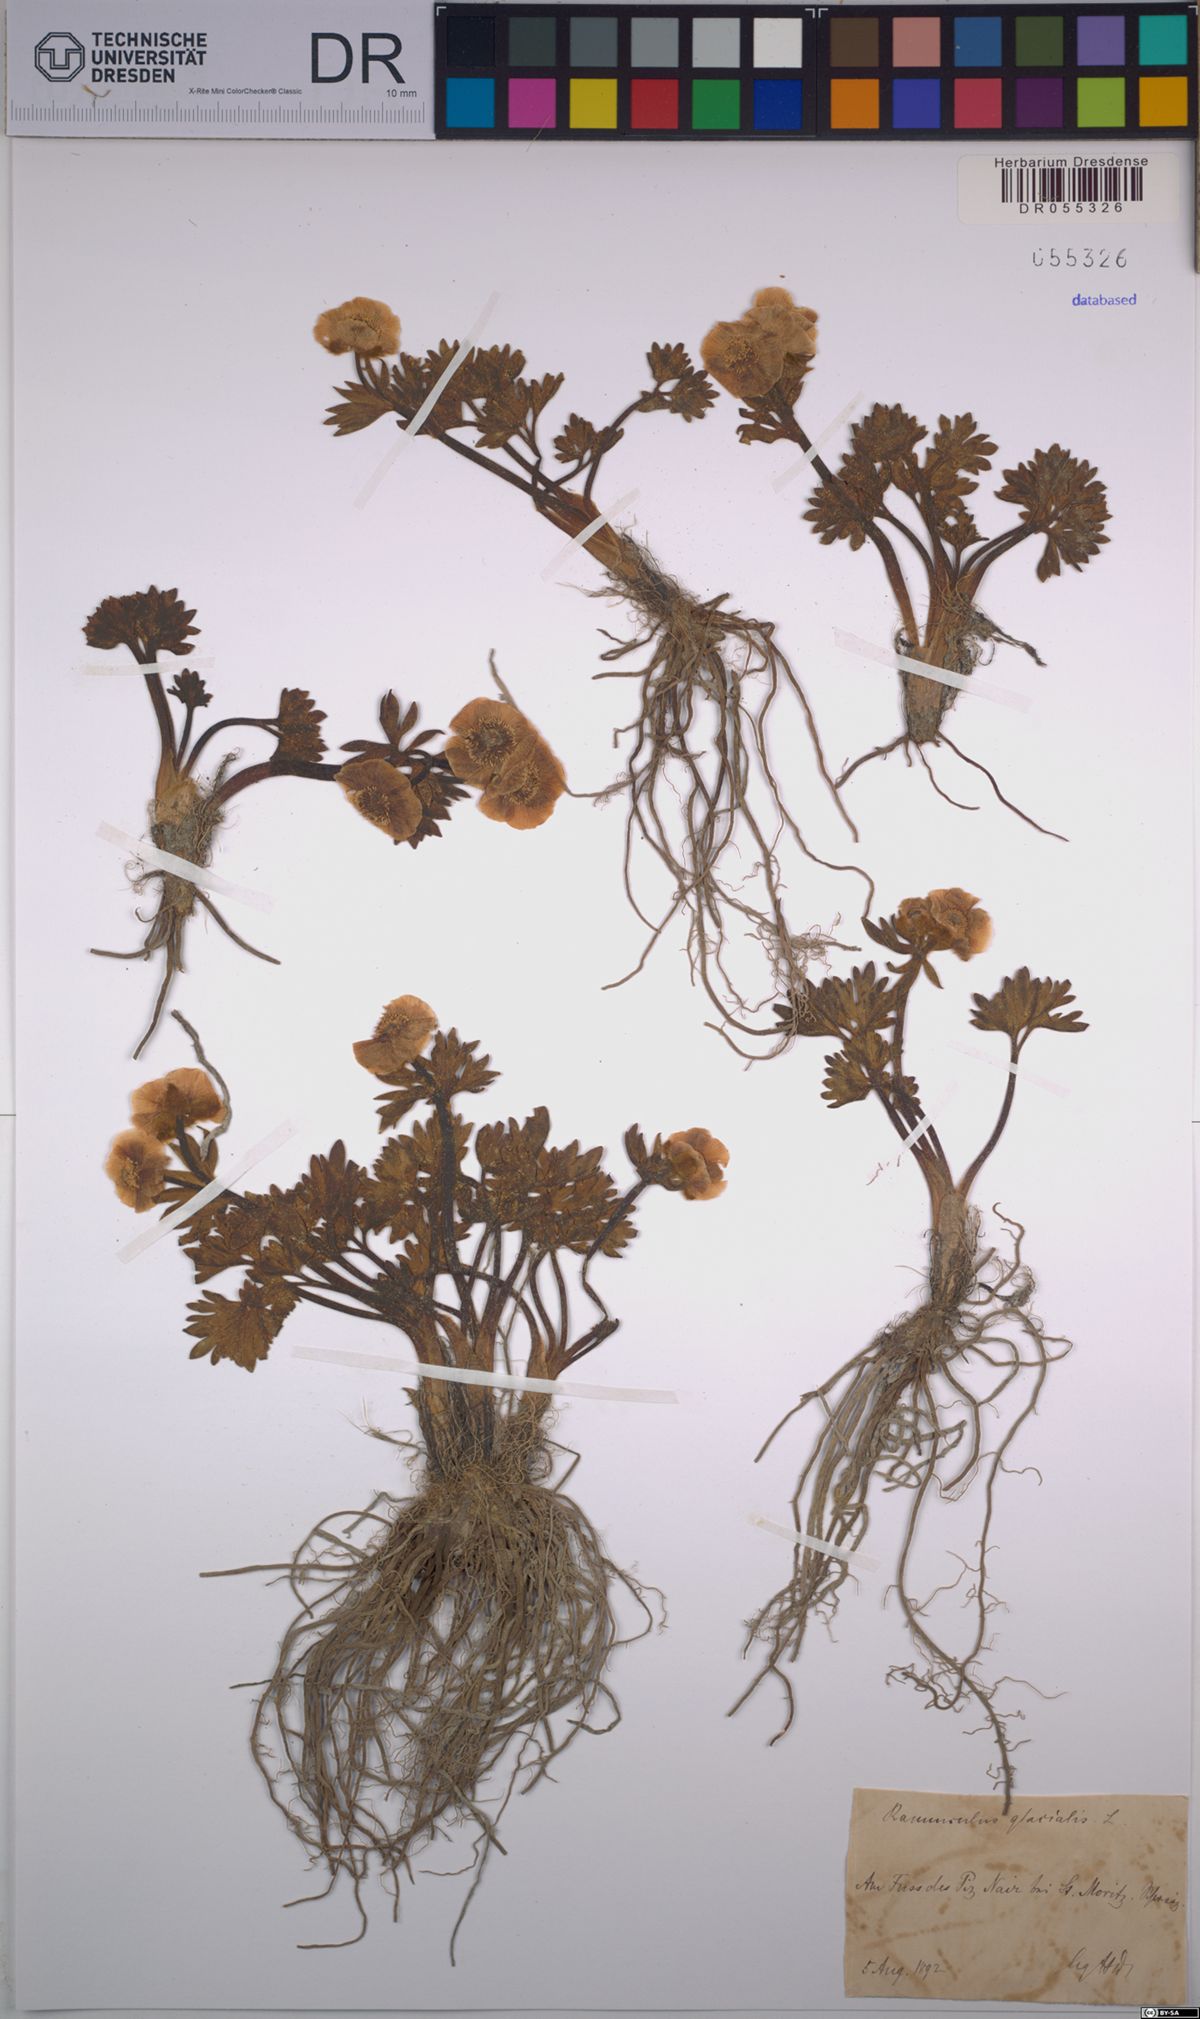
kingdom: Plantae
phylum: Tracheophyta
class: Magnoliopsida
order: Ranunculales
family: Ranunculaceae
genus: Ranunculus
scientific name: Ranunculus glacialis
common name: Glacier buttercup
